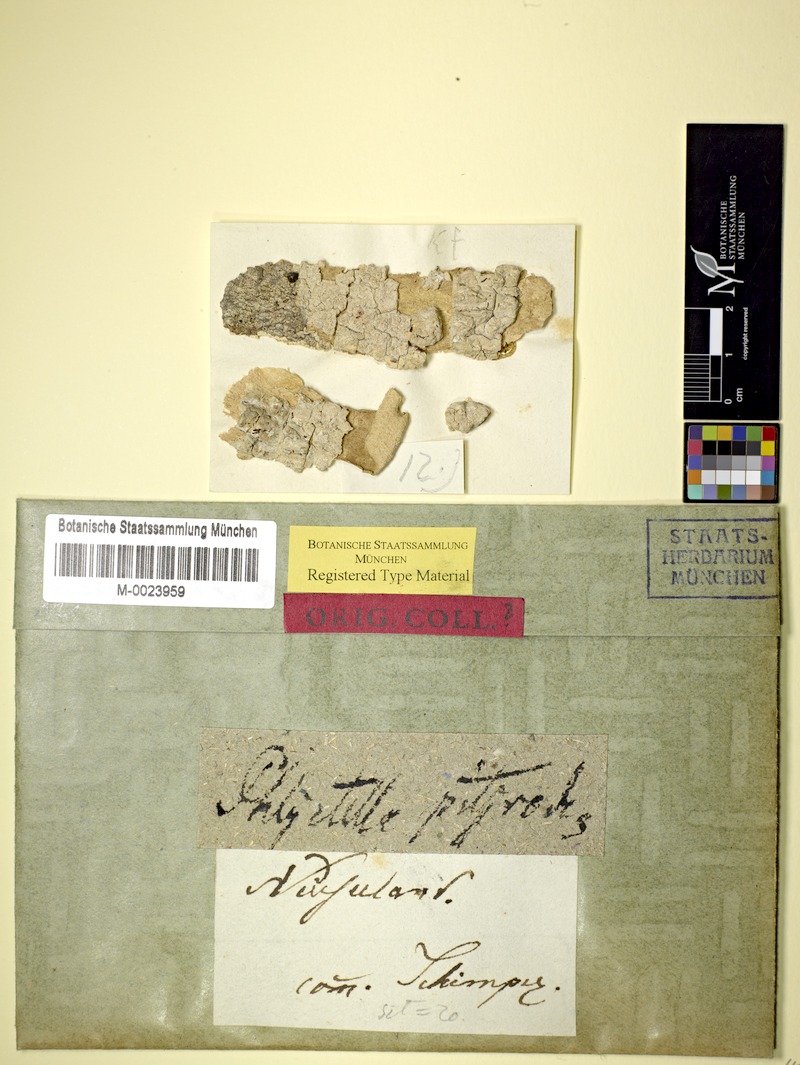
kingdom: Fungi
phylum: Ascomycota
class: Lecanoromycetes
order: Ostropales
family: Phlyctidaceae
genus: Phlyctis
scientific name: Phlyctis
